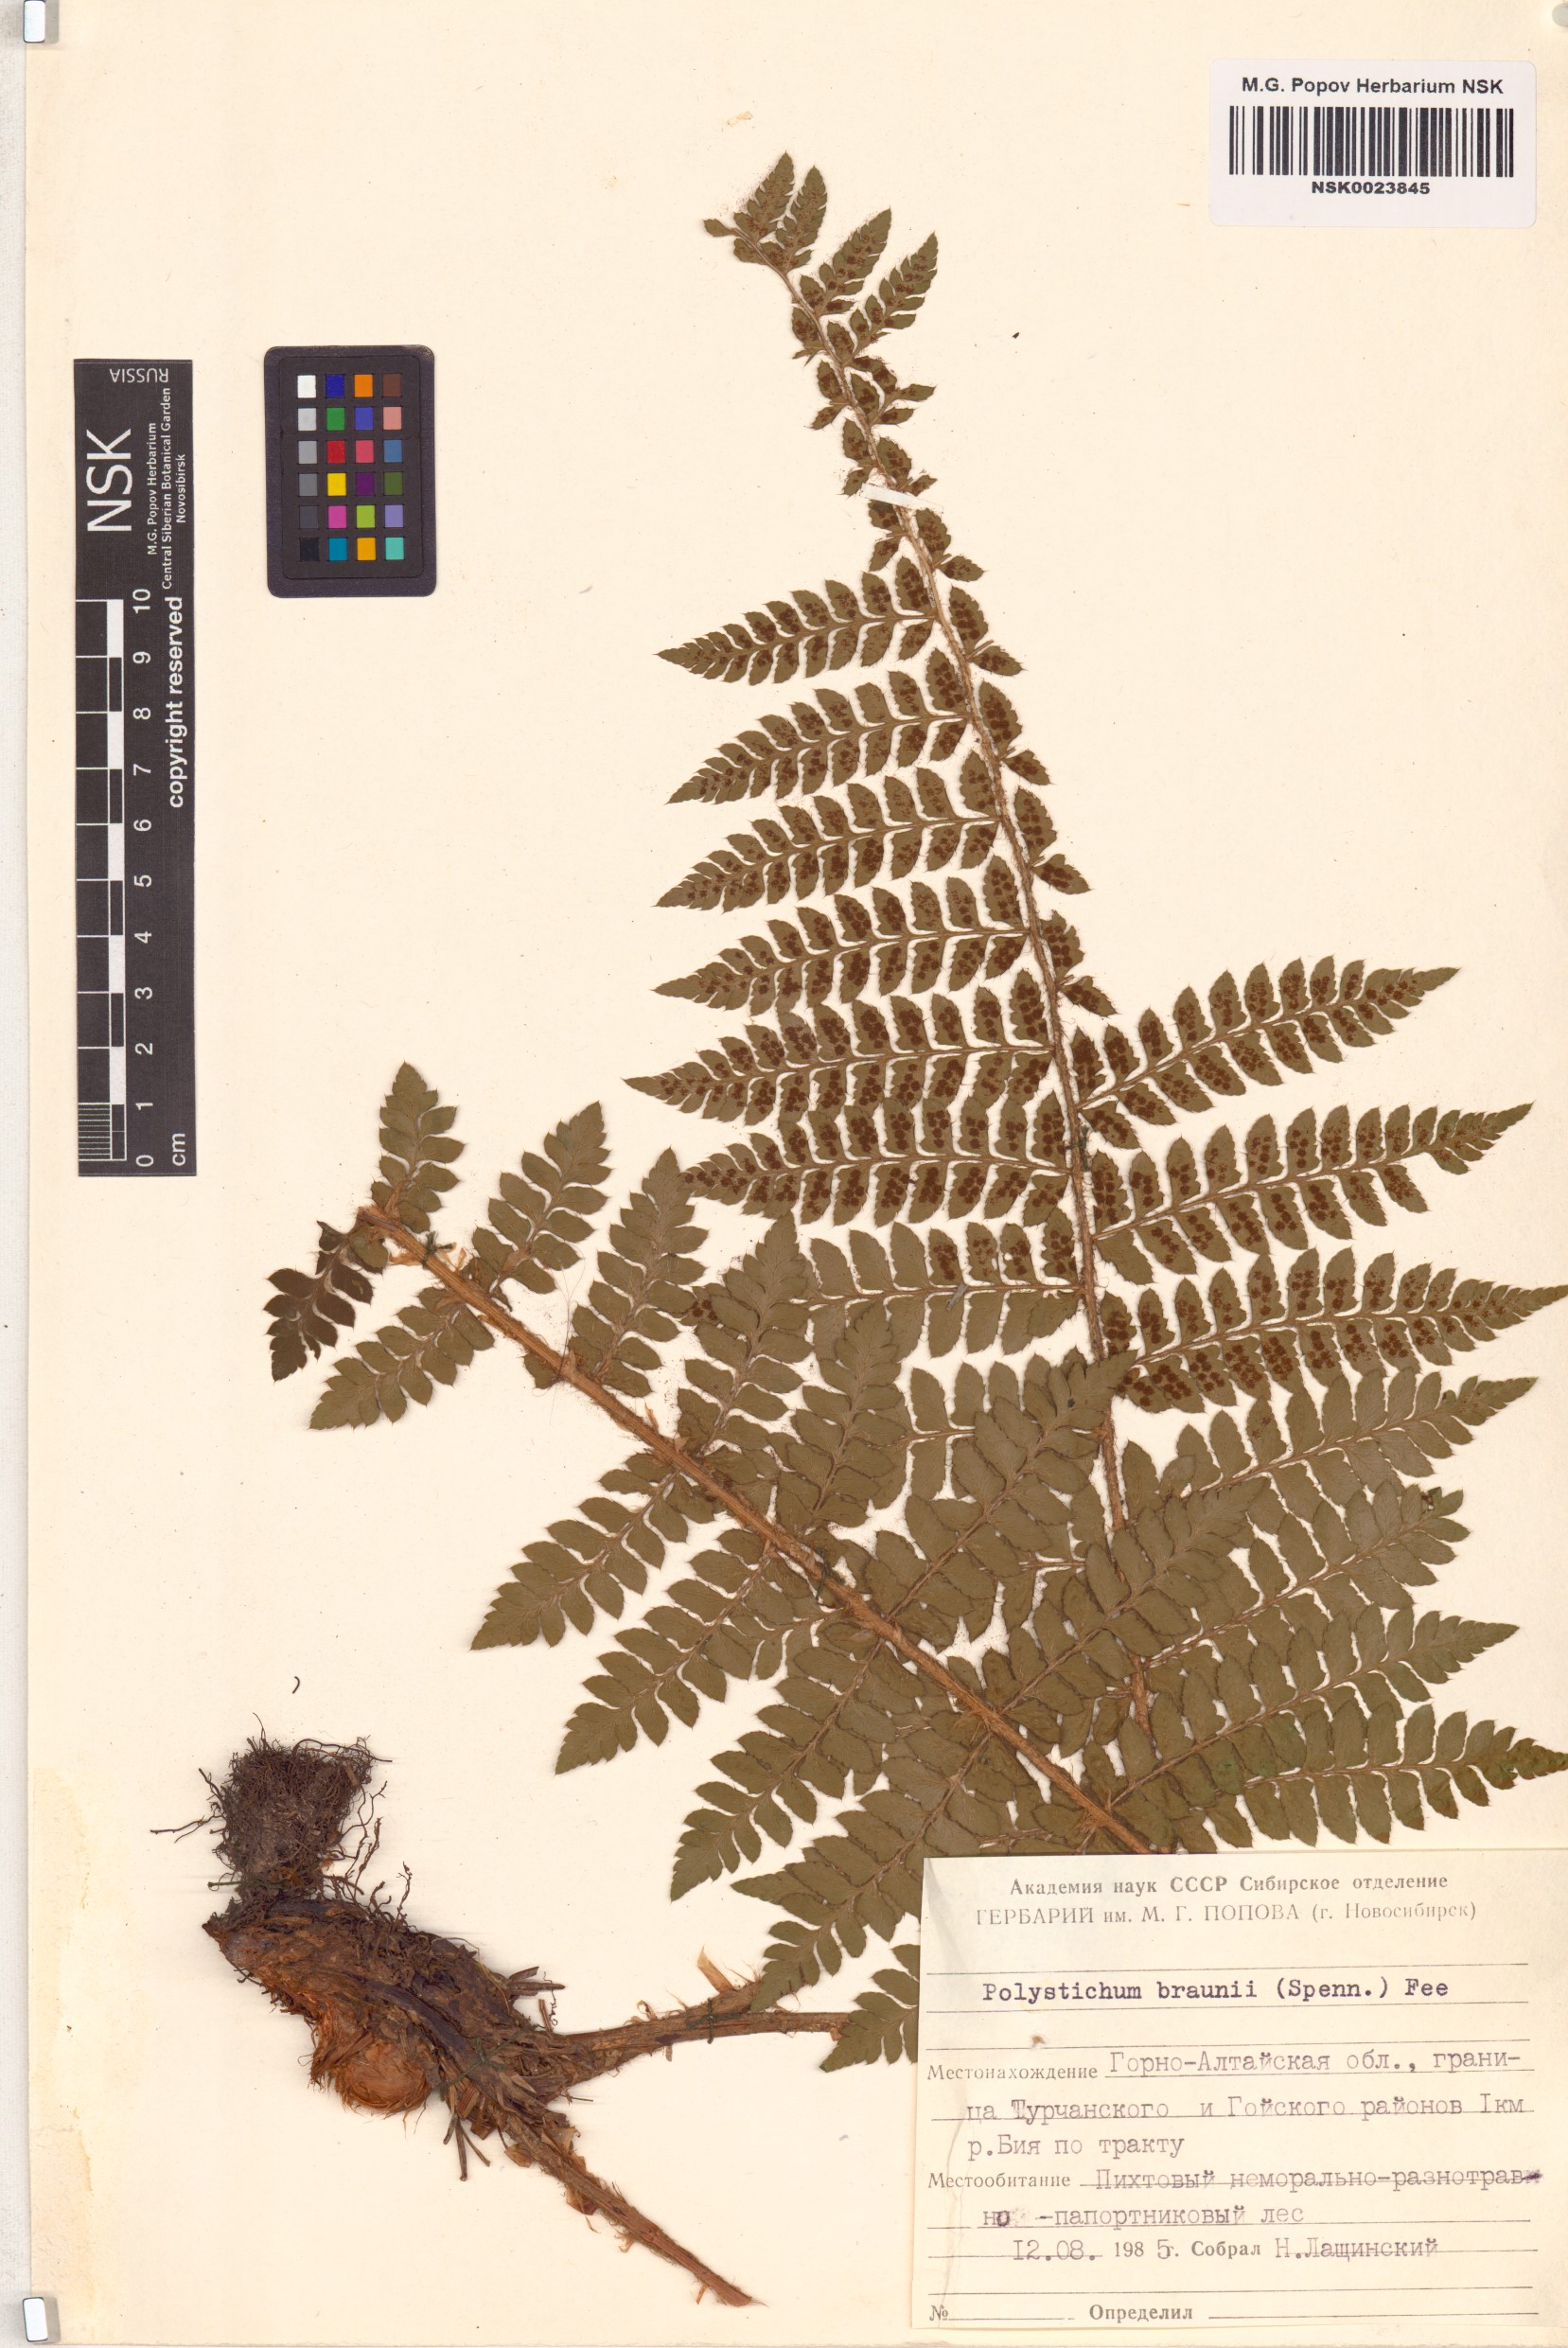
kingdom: Plantae
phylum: Tracheophyta
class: Polypodiopsida
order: Polypodiales
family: Dryopteridaceae
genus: Polystichum
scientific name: Polystichum braunii
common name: Braun's holly fern
